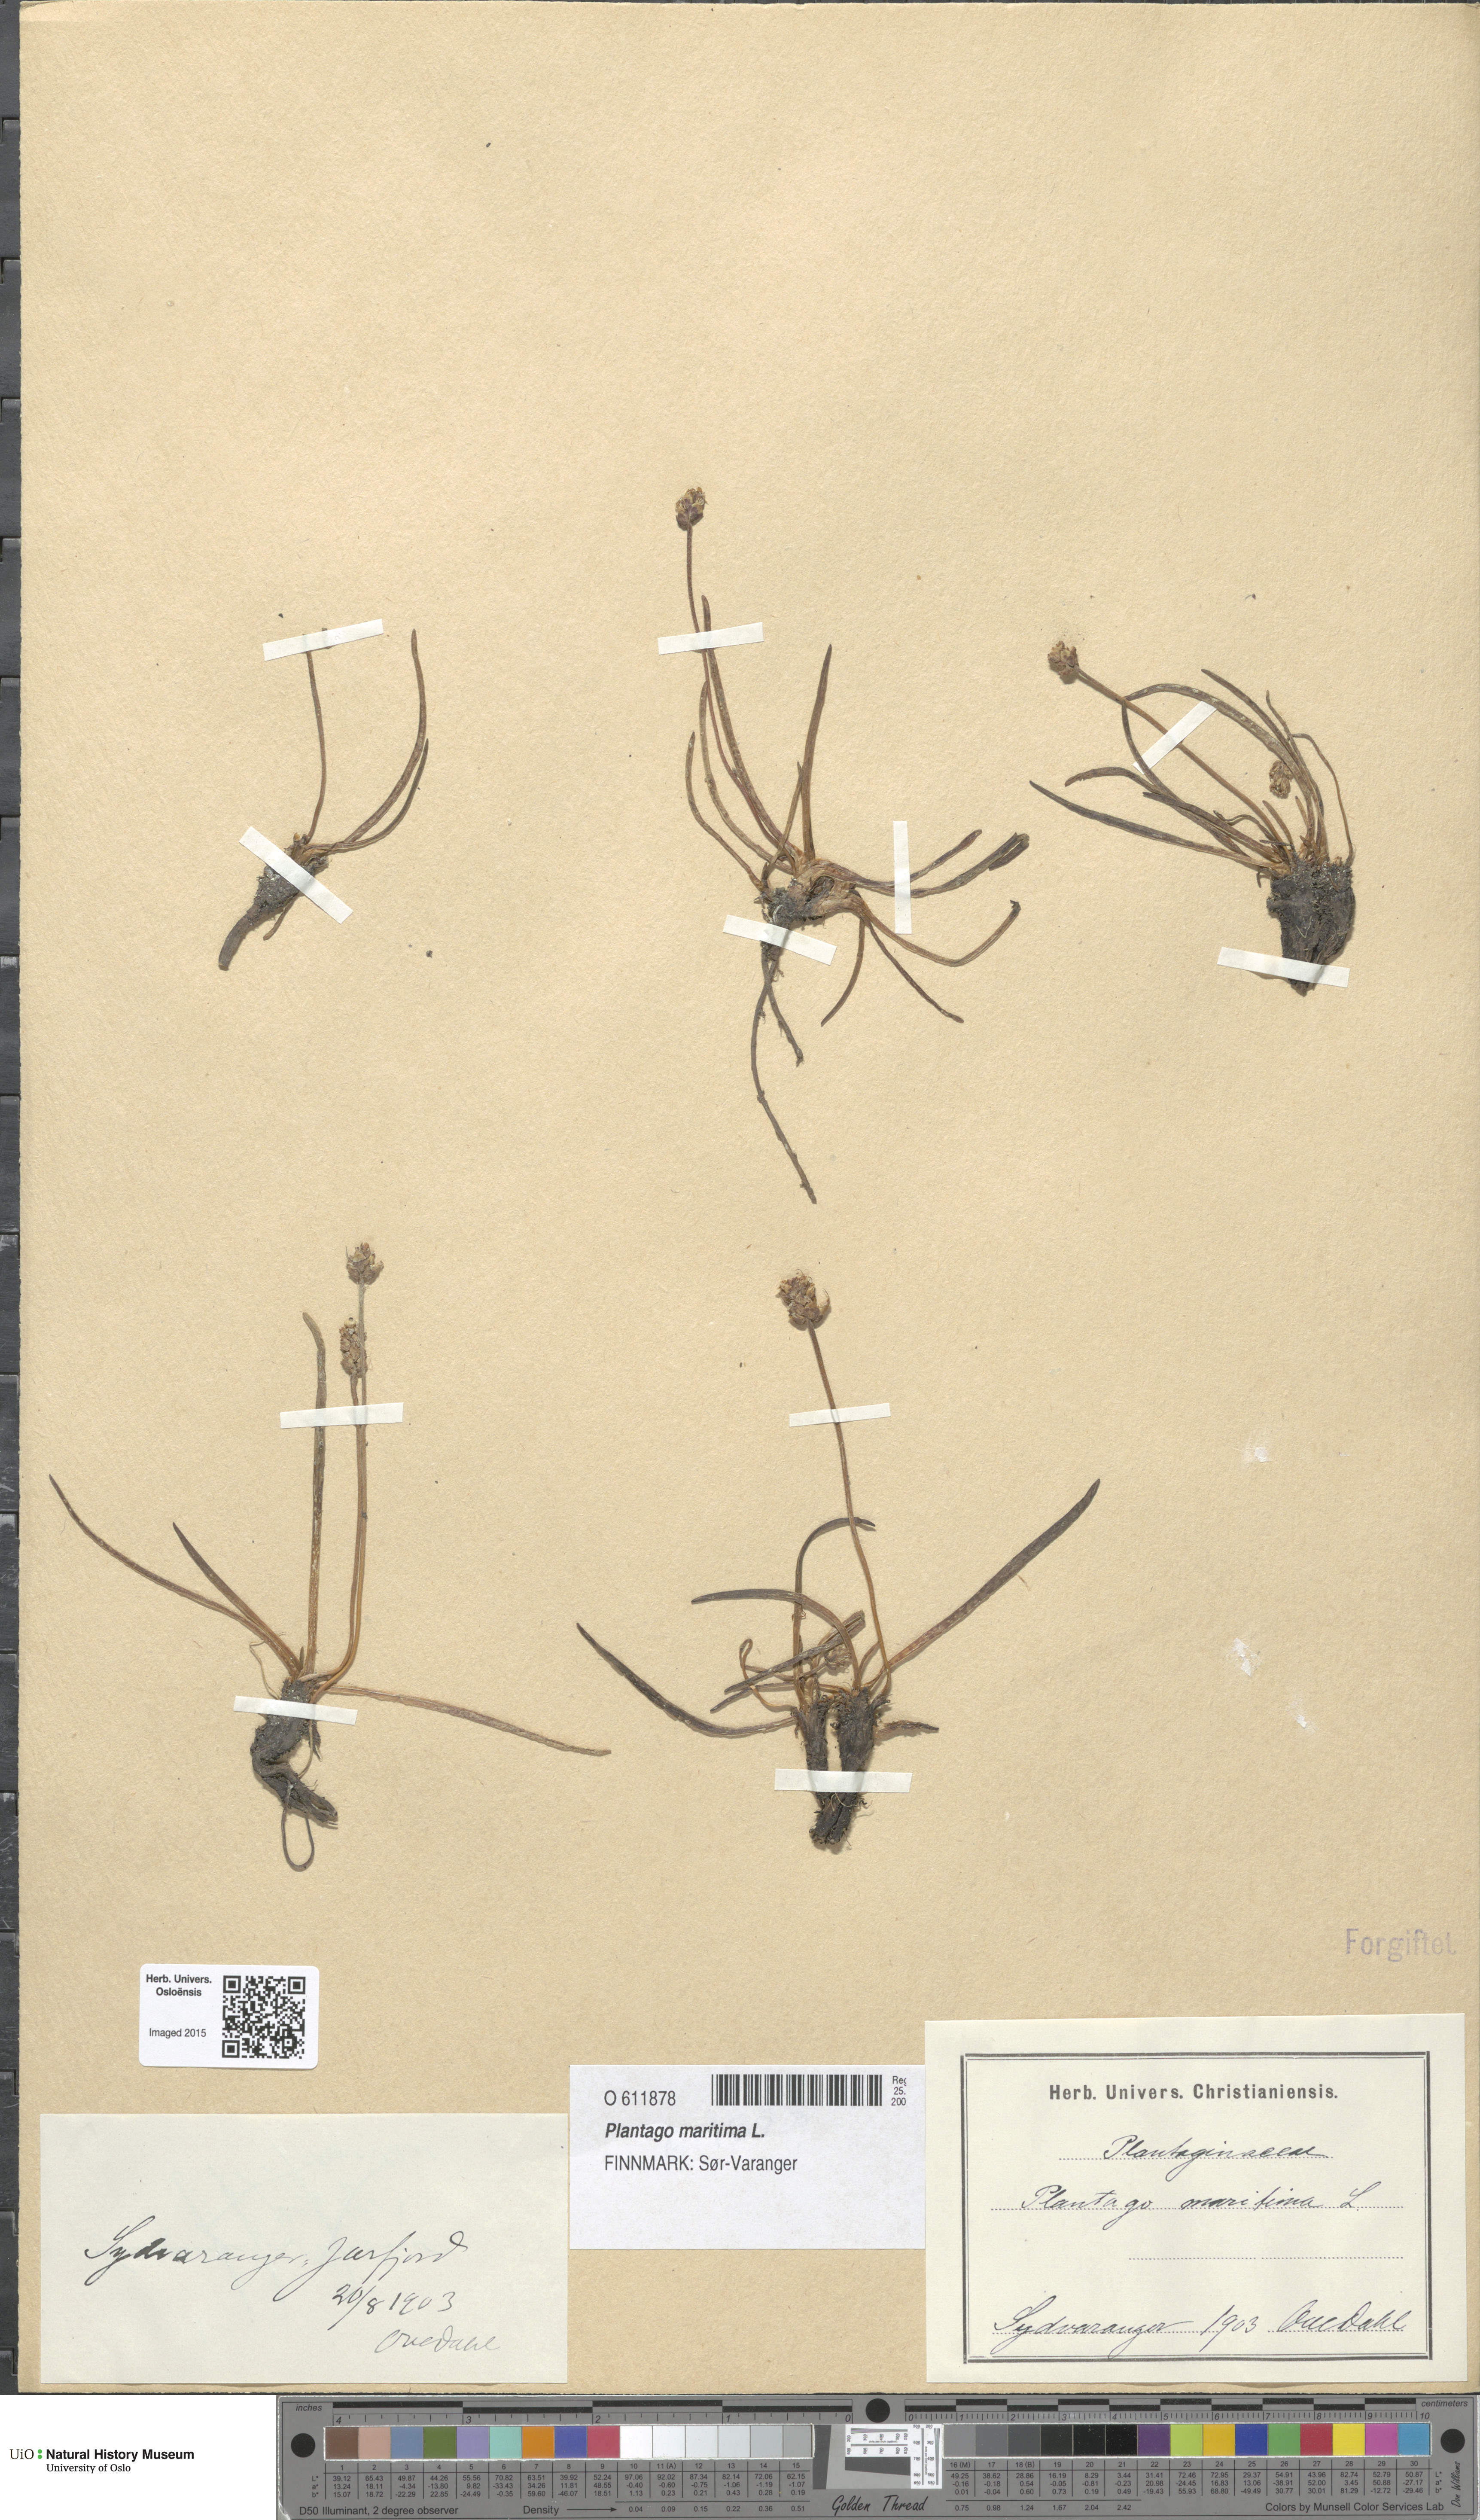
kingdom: Plantae
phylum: Tracheophyta
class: Magnoliopsida
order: Lamiales
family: Plantaginaceae
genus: Plantago
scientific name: Plantago maritima
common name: Sea plantain
